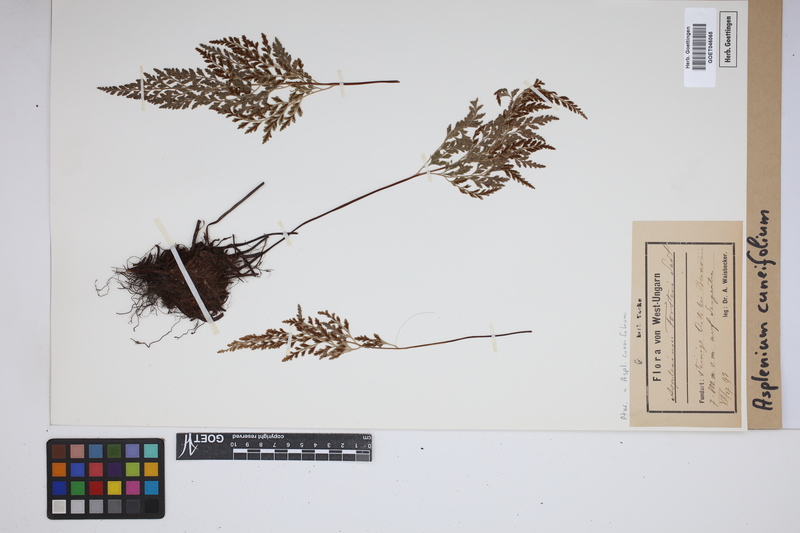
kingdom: Plantae
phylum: Tracheophyta
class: Polypodiopsida
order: Polypodiales
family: Aspleniaceae
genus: Asplenium
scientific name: Asplenium cuneifolium
